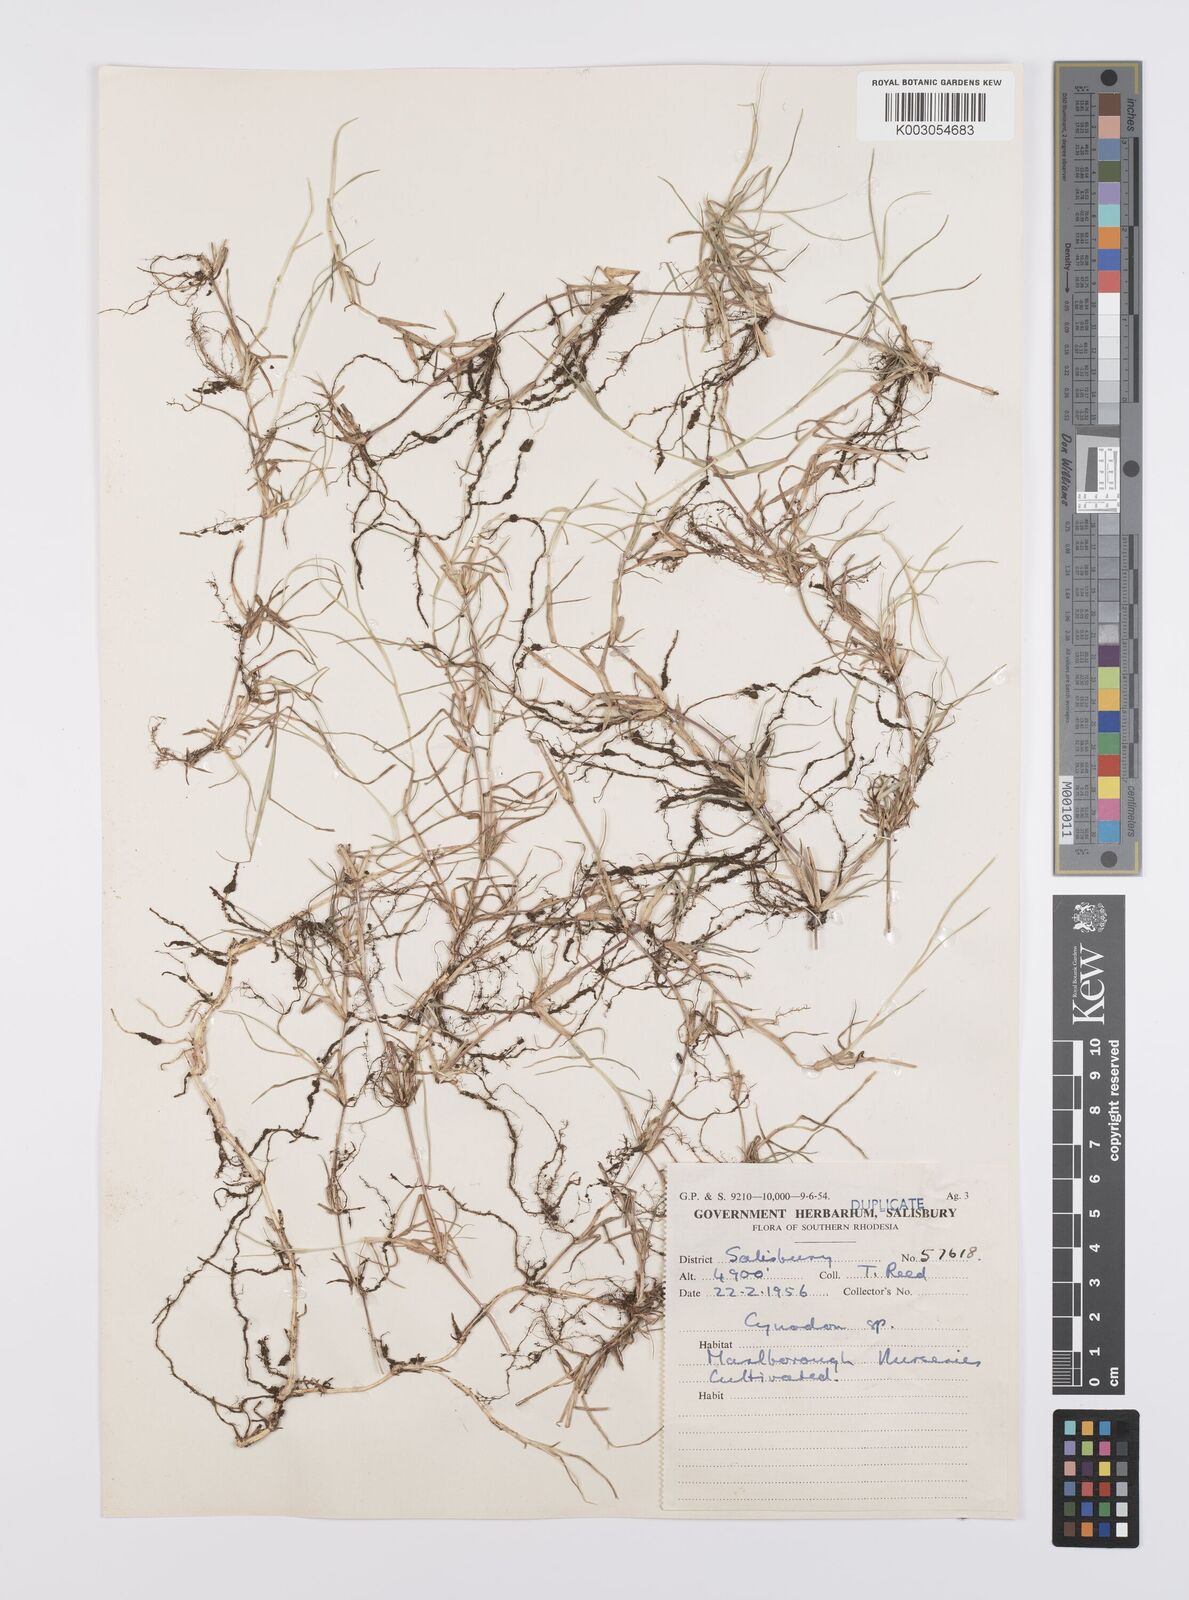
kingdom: Plantae
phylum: Tracheophyta
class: Liliopsida
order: Poales
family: Poaceae
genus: Cynodon
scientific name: Cynodon magennisii
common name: Bermudagrass
